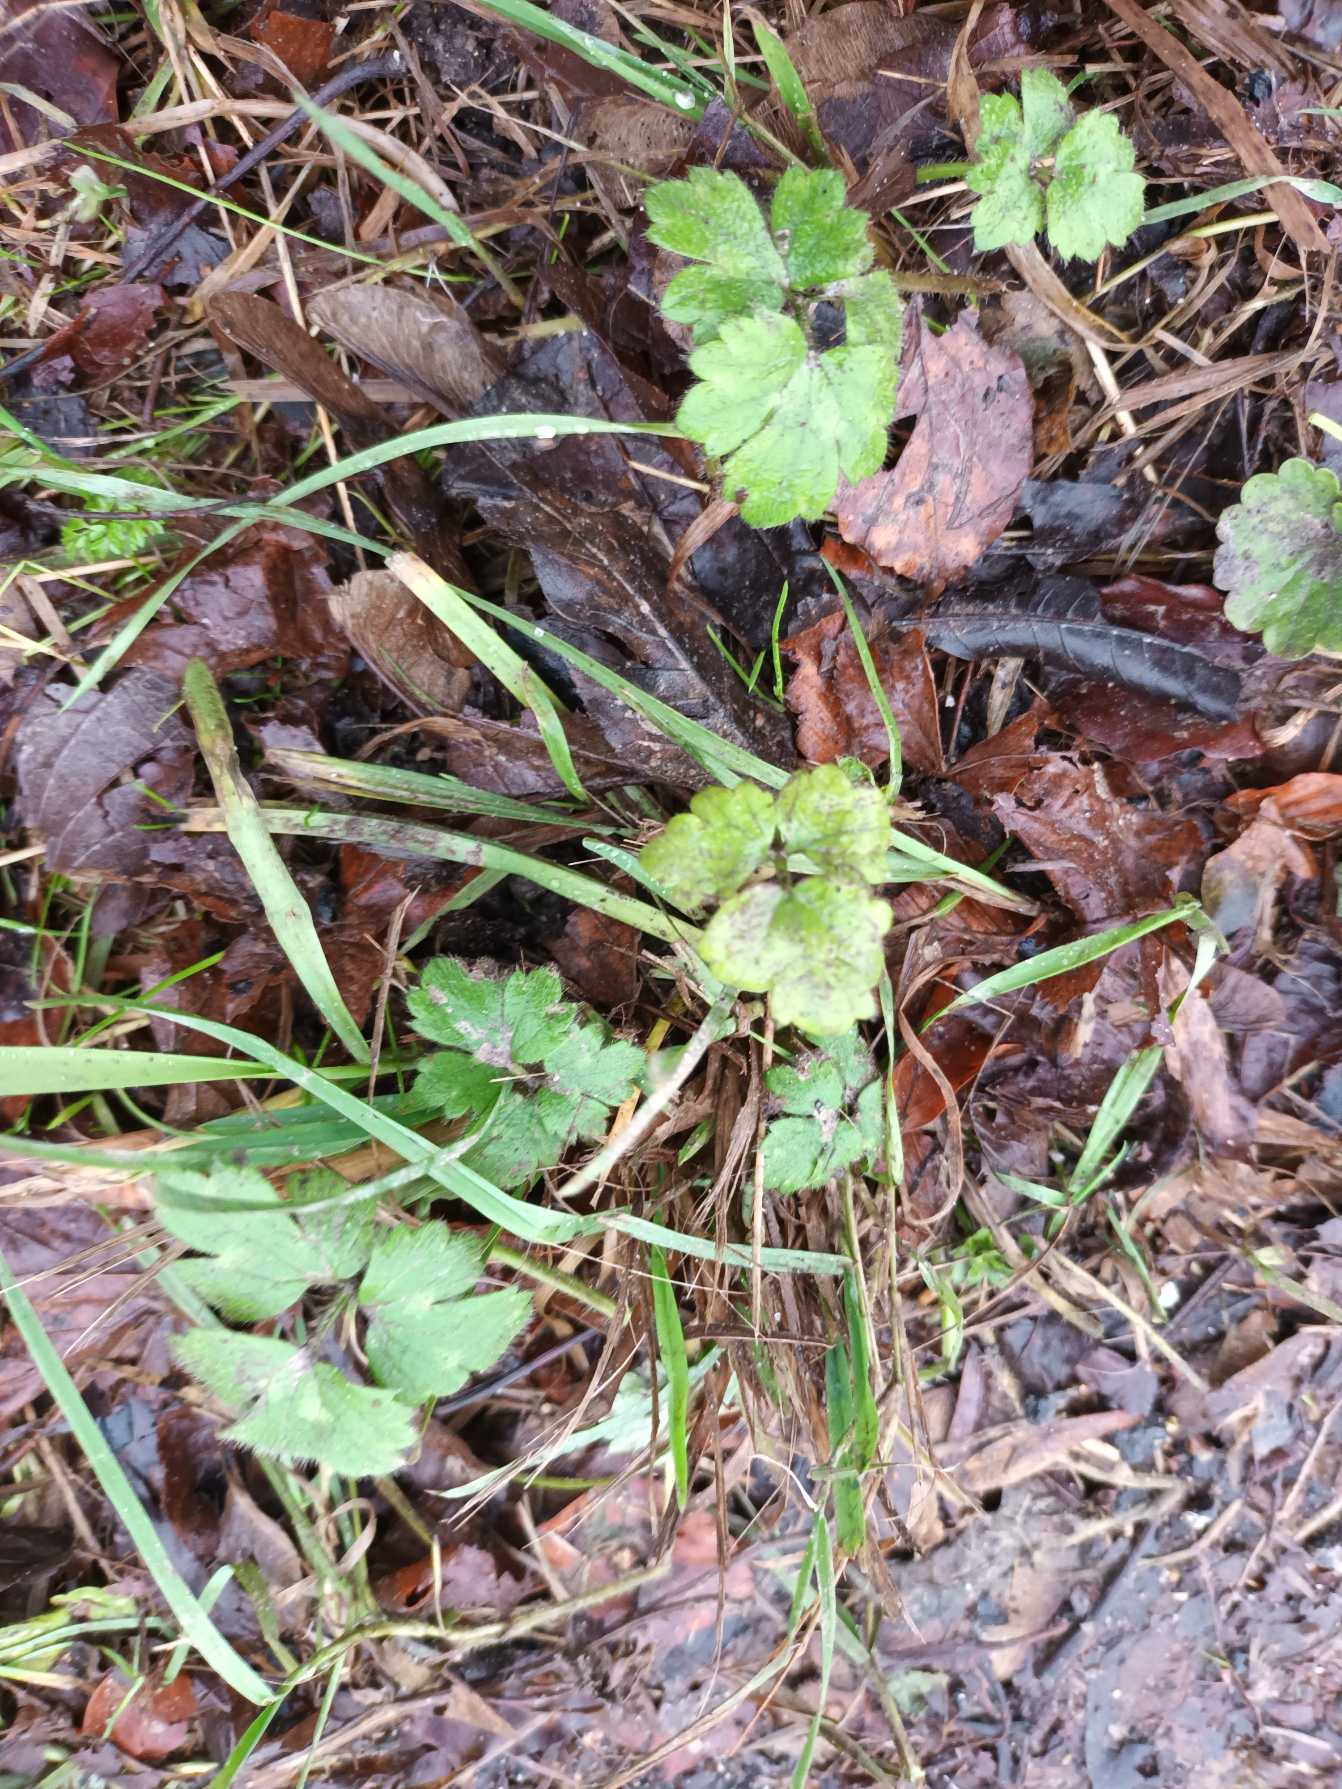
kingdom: Plantae
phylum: Tracheophyta
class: Magnoliopsida
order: Ranunculales
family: Ranunculaceae
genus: Ranunculus
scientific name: Ranunculus repens
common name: Lav ranunkel
